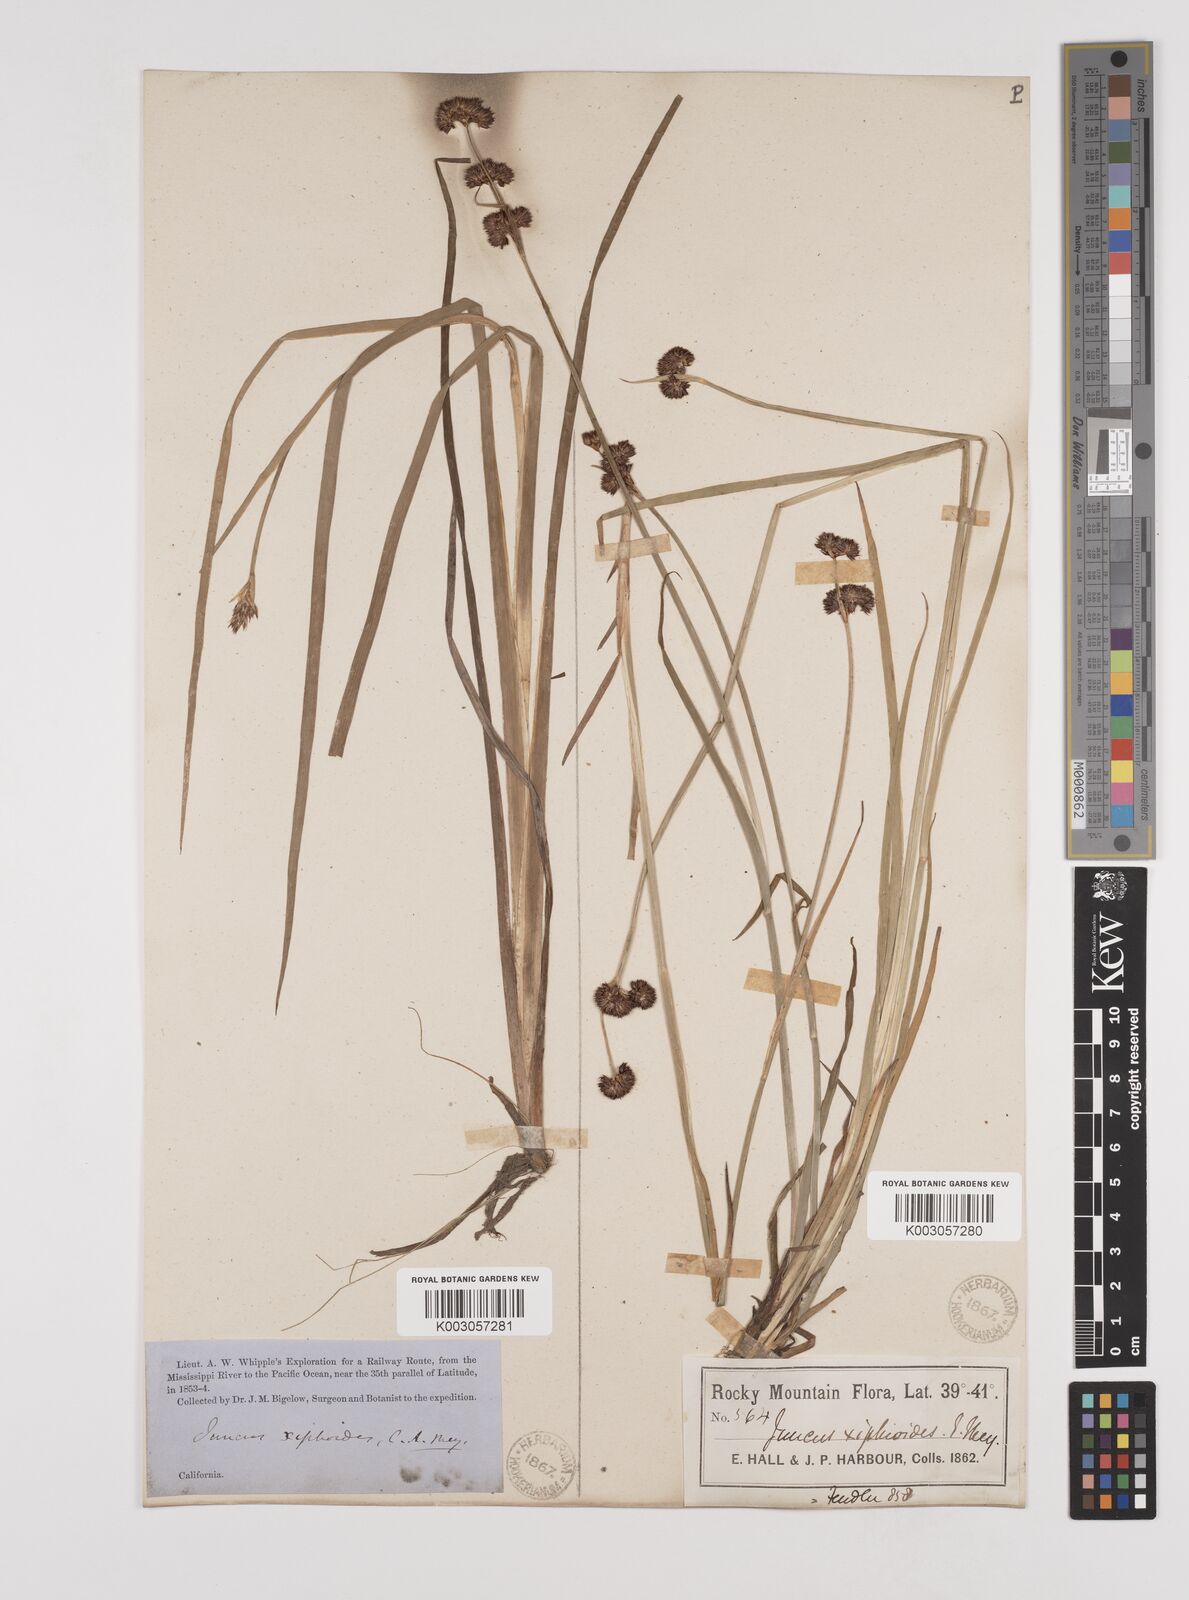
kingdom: Plantae
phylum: Tracheophyta
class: Liliopsida
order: Poales
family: Juncaceae
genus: Juncus
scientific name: Juncus xiphioides
